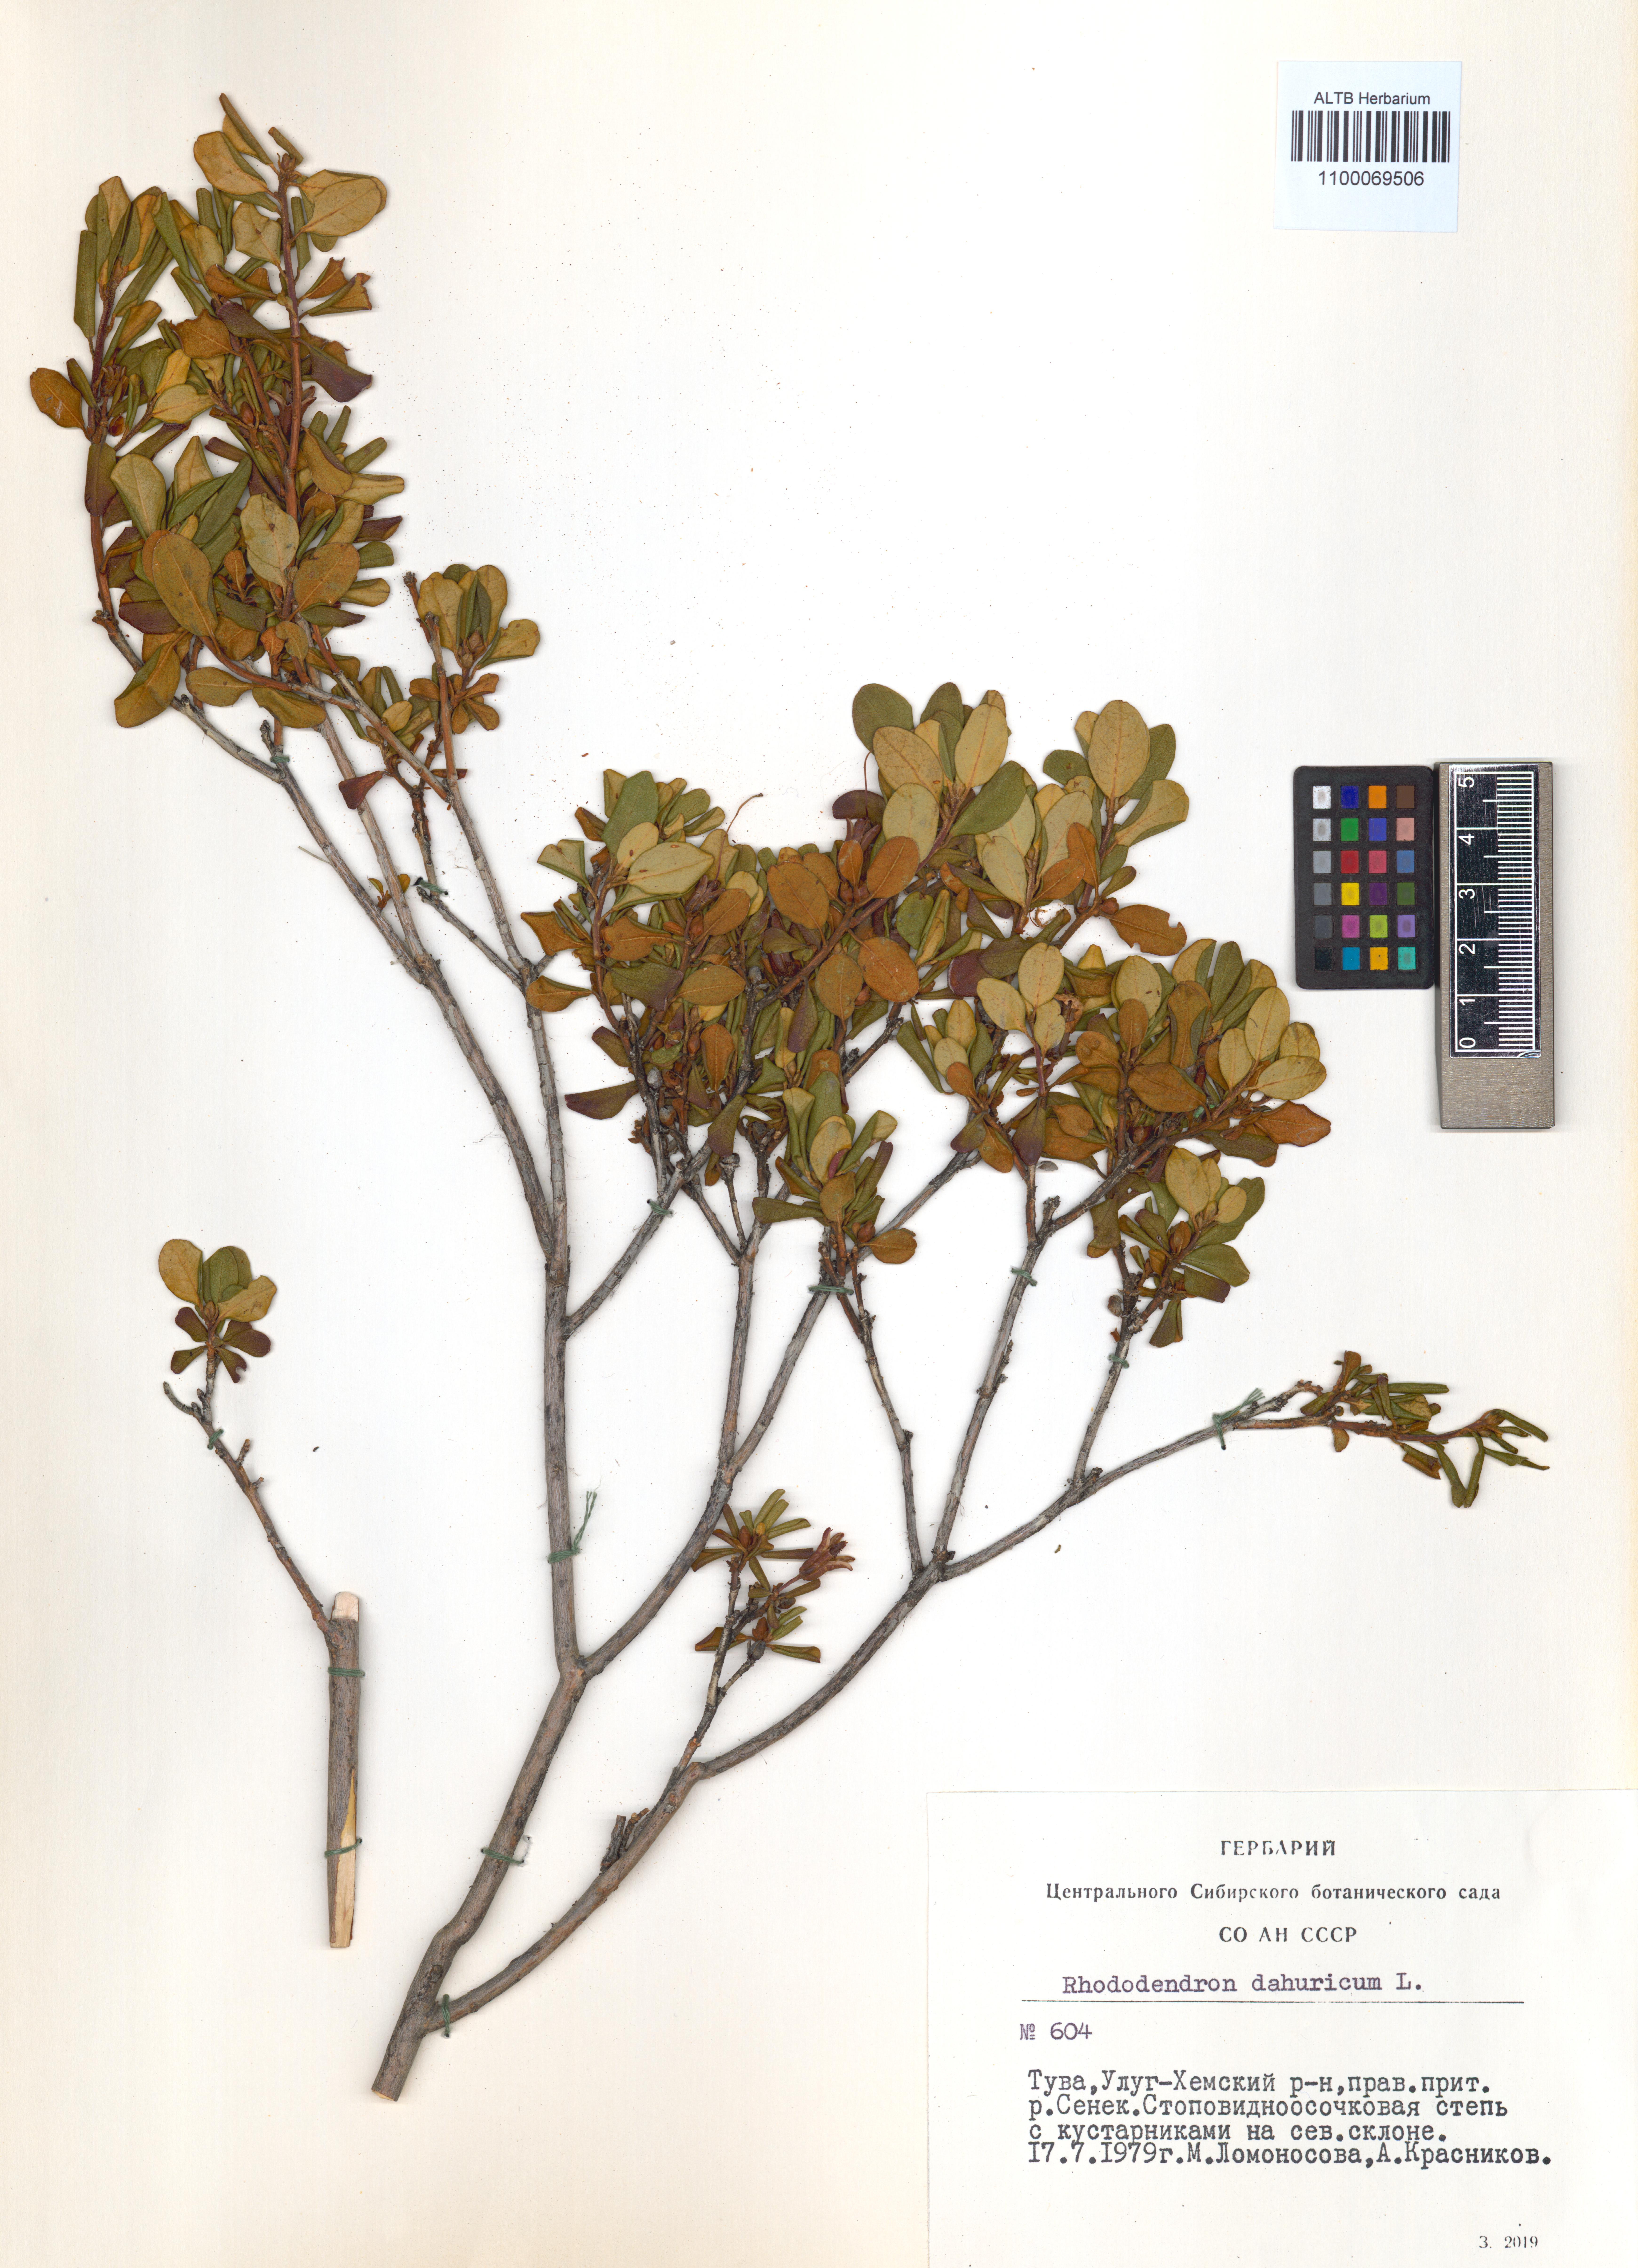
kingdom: Plantae
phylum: Tracheophyta
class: Magnoliopsida
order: Ericales
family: Ericaceae
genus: Rhododendron
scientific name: Rhododendron dauricum
